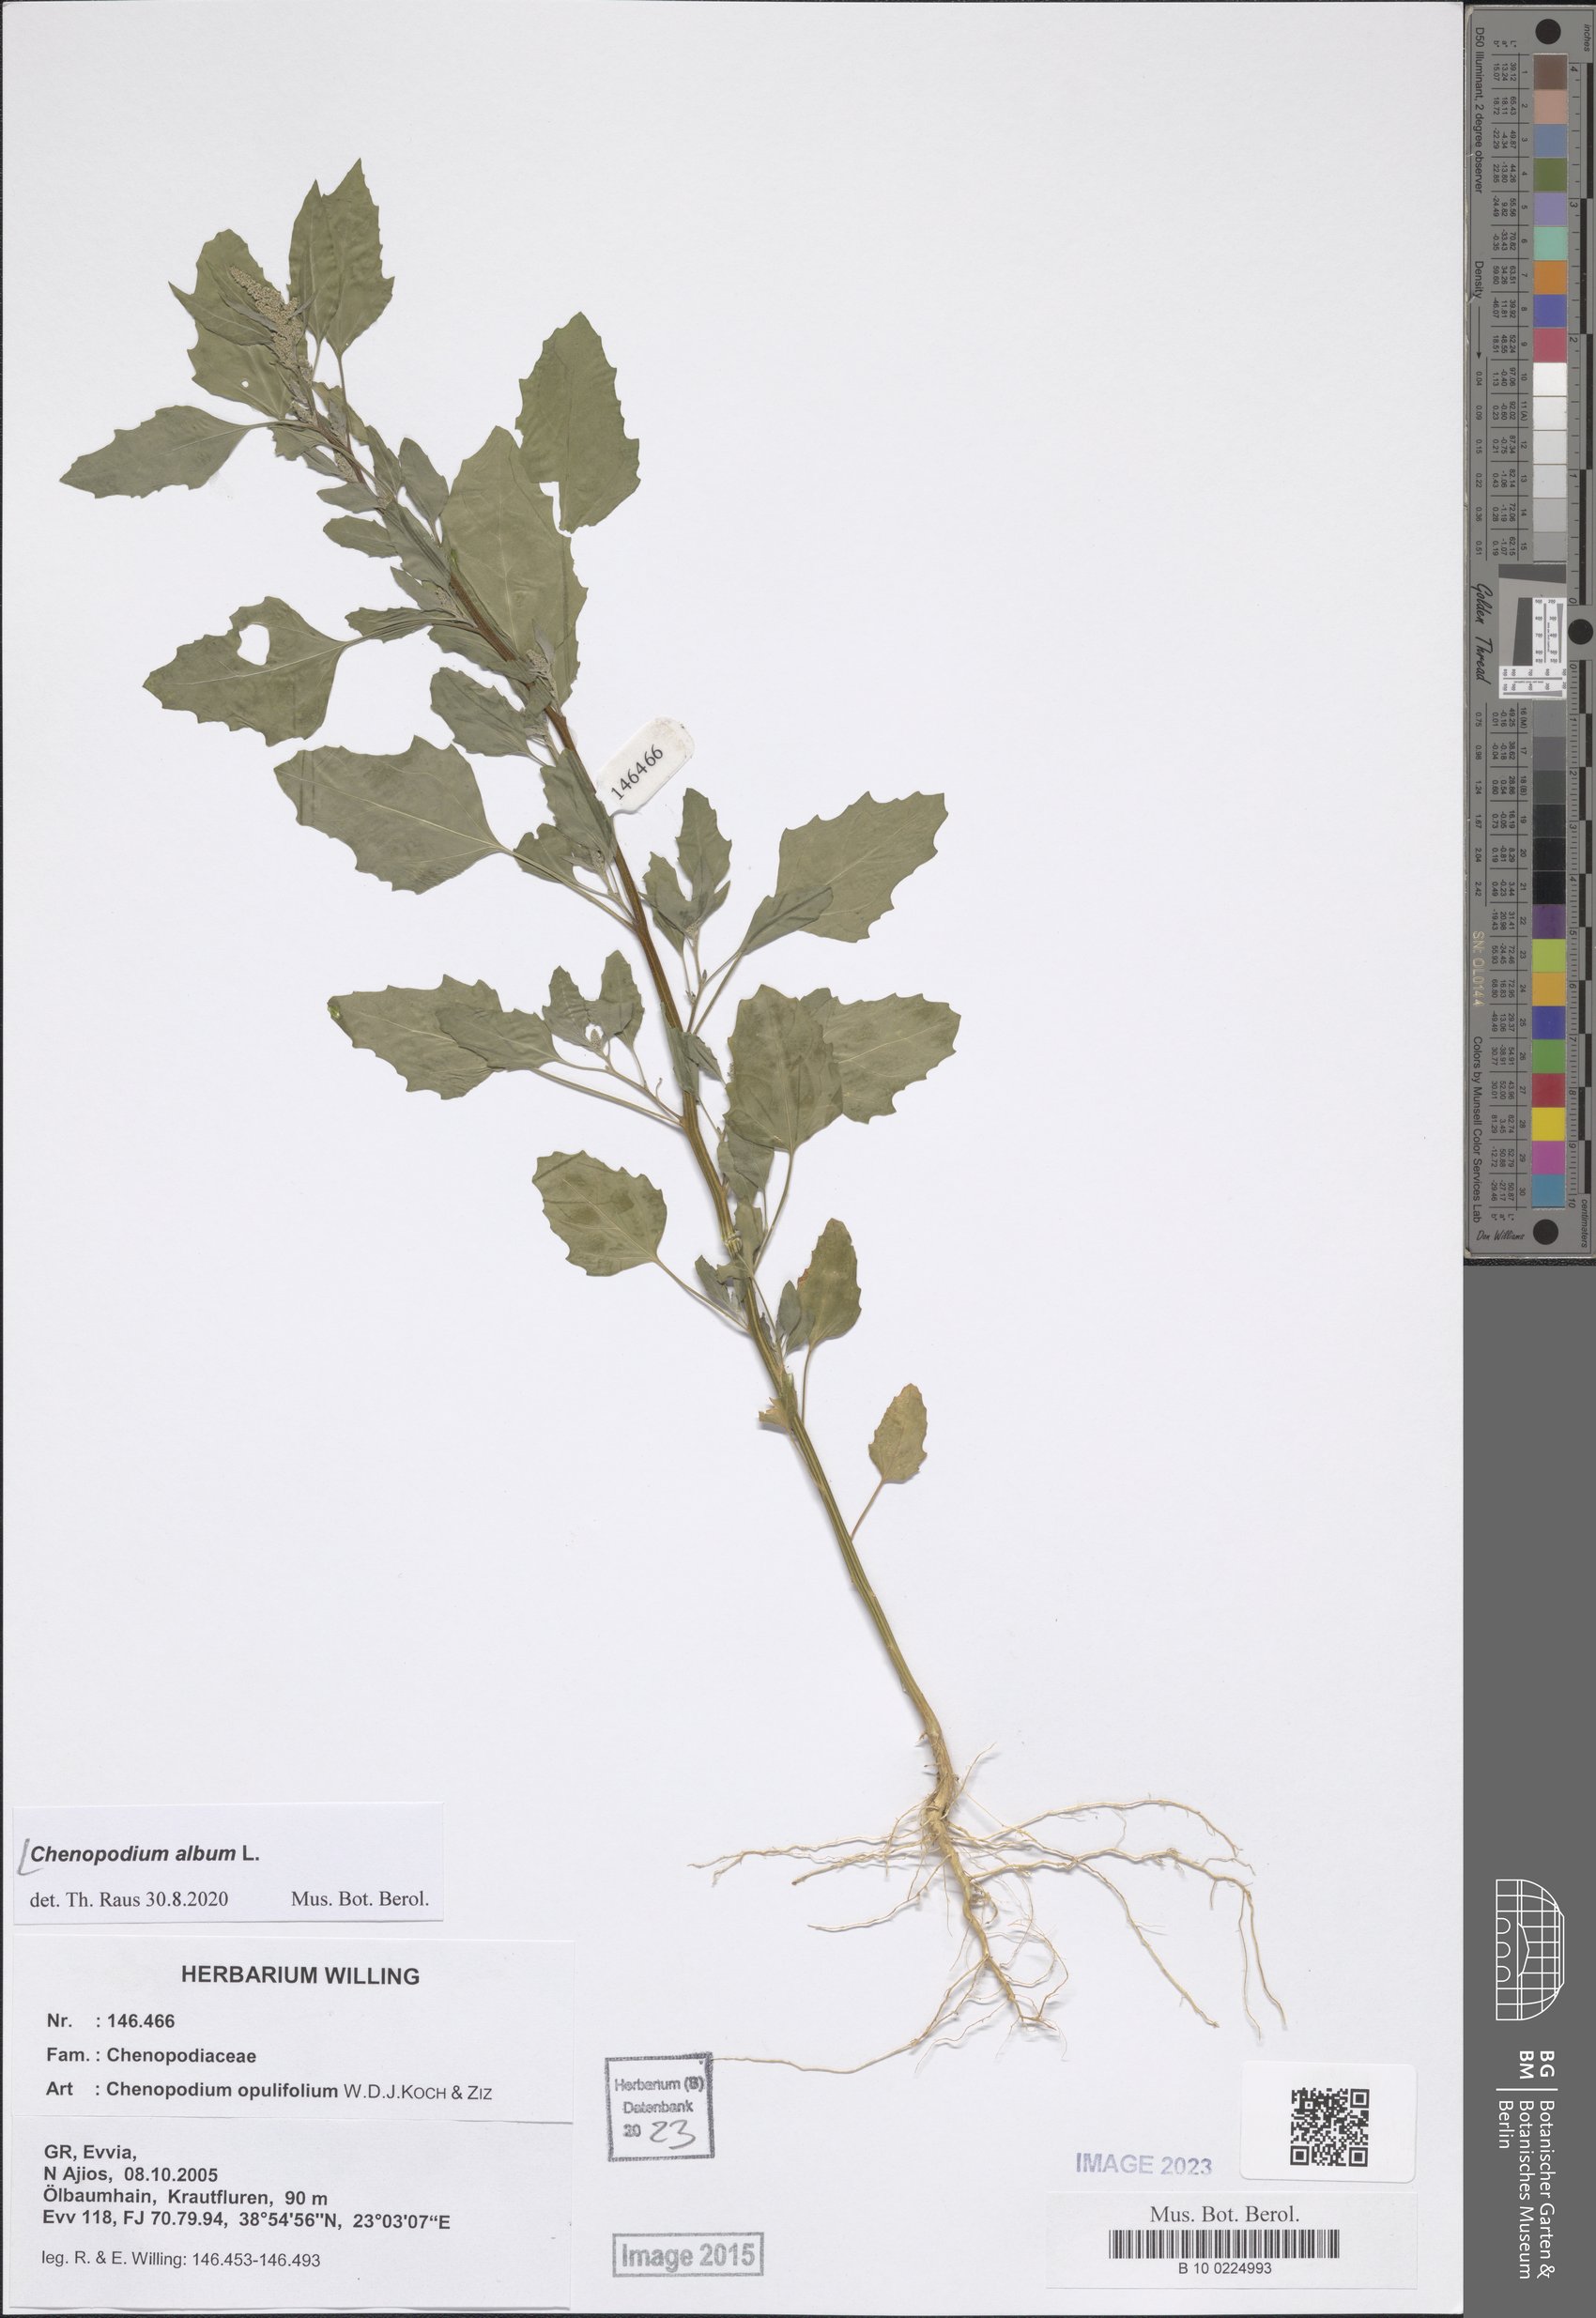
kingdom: Plantae
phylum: Tracheophyta
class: Magnoliopsida
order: Caryophyllales
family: Amaranthaceae
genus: Chenopodium
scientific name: Chenopodium album
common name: Fat-hen
